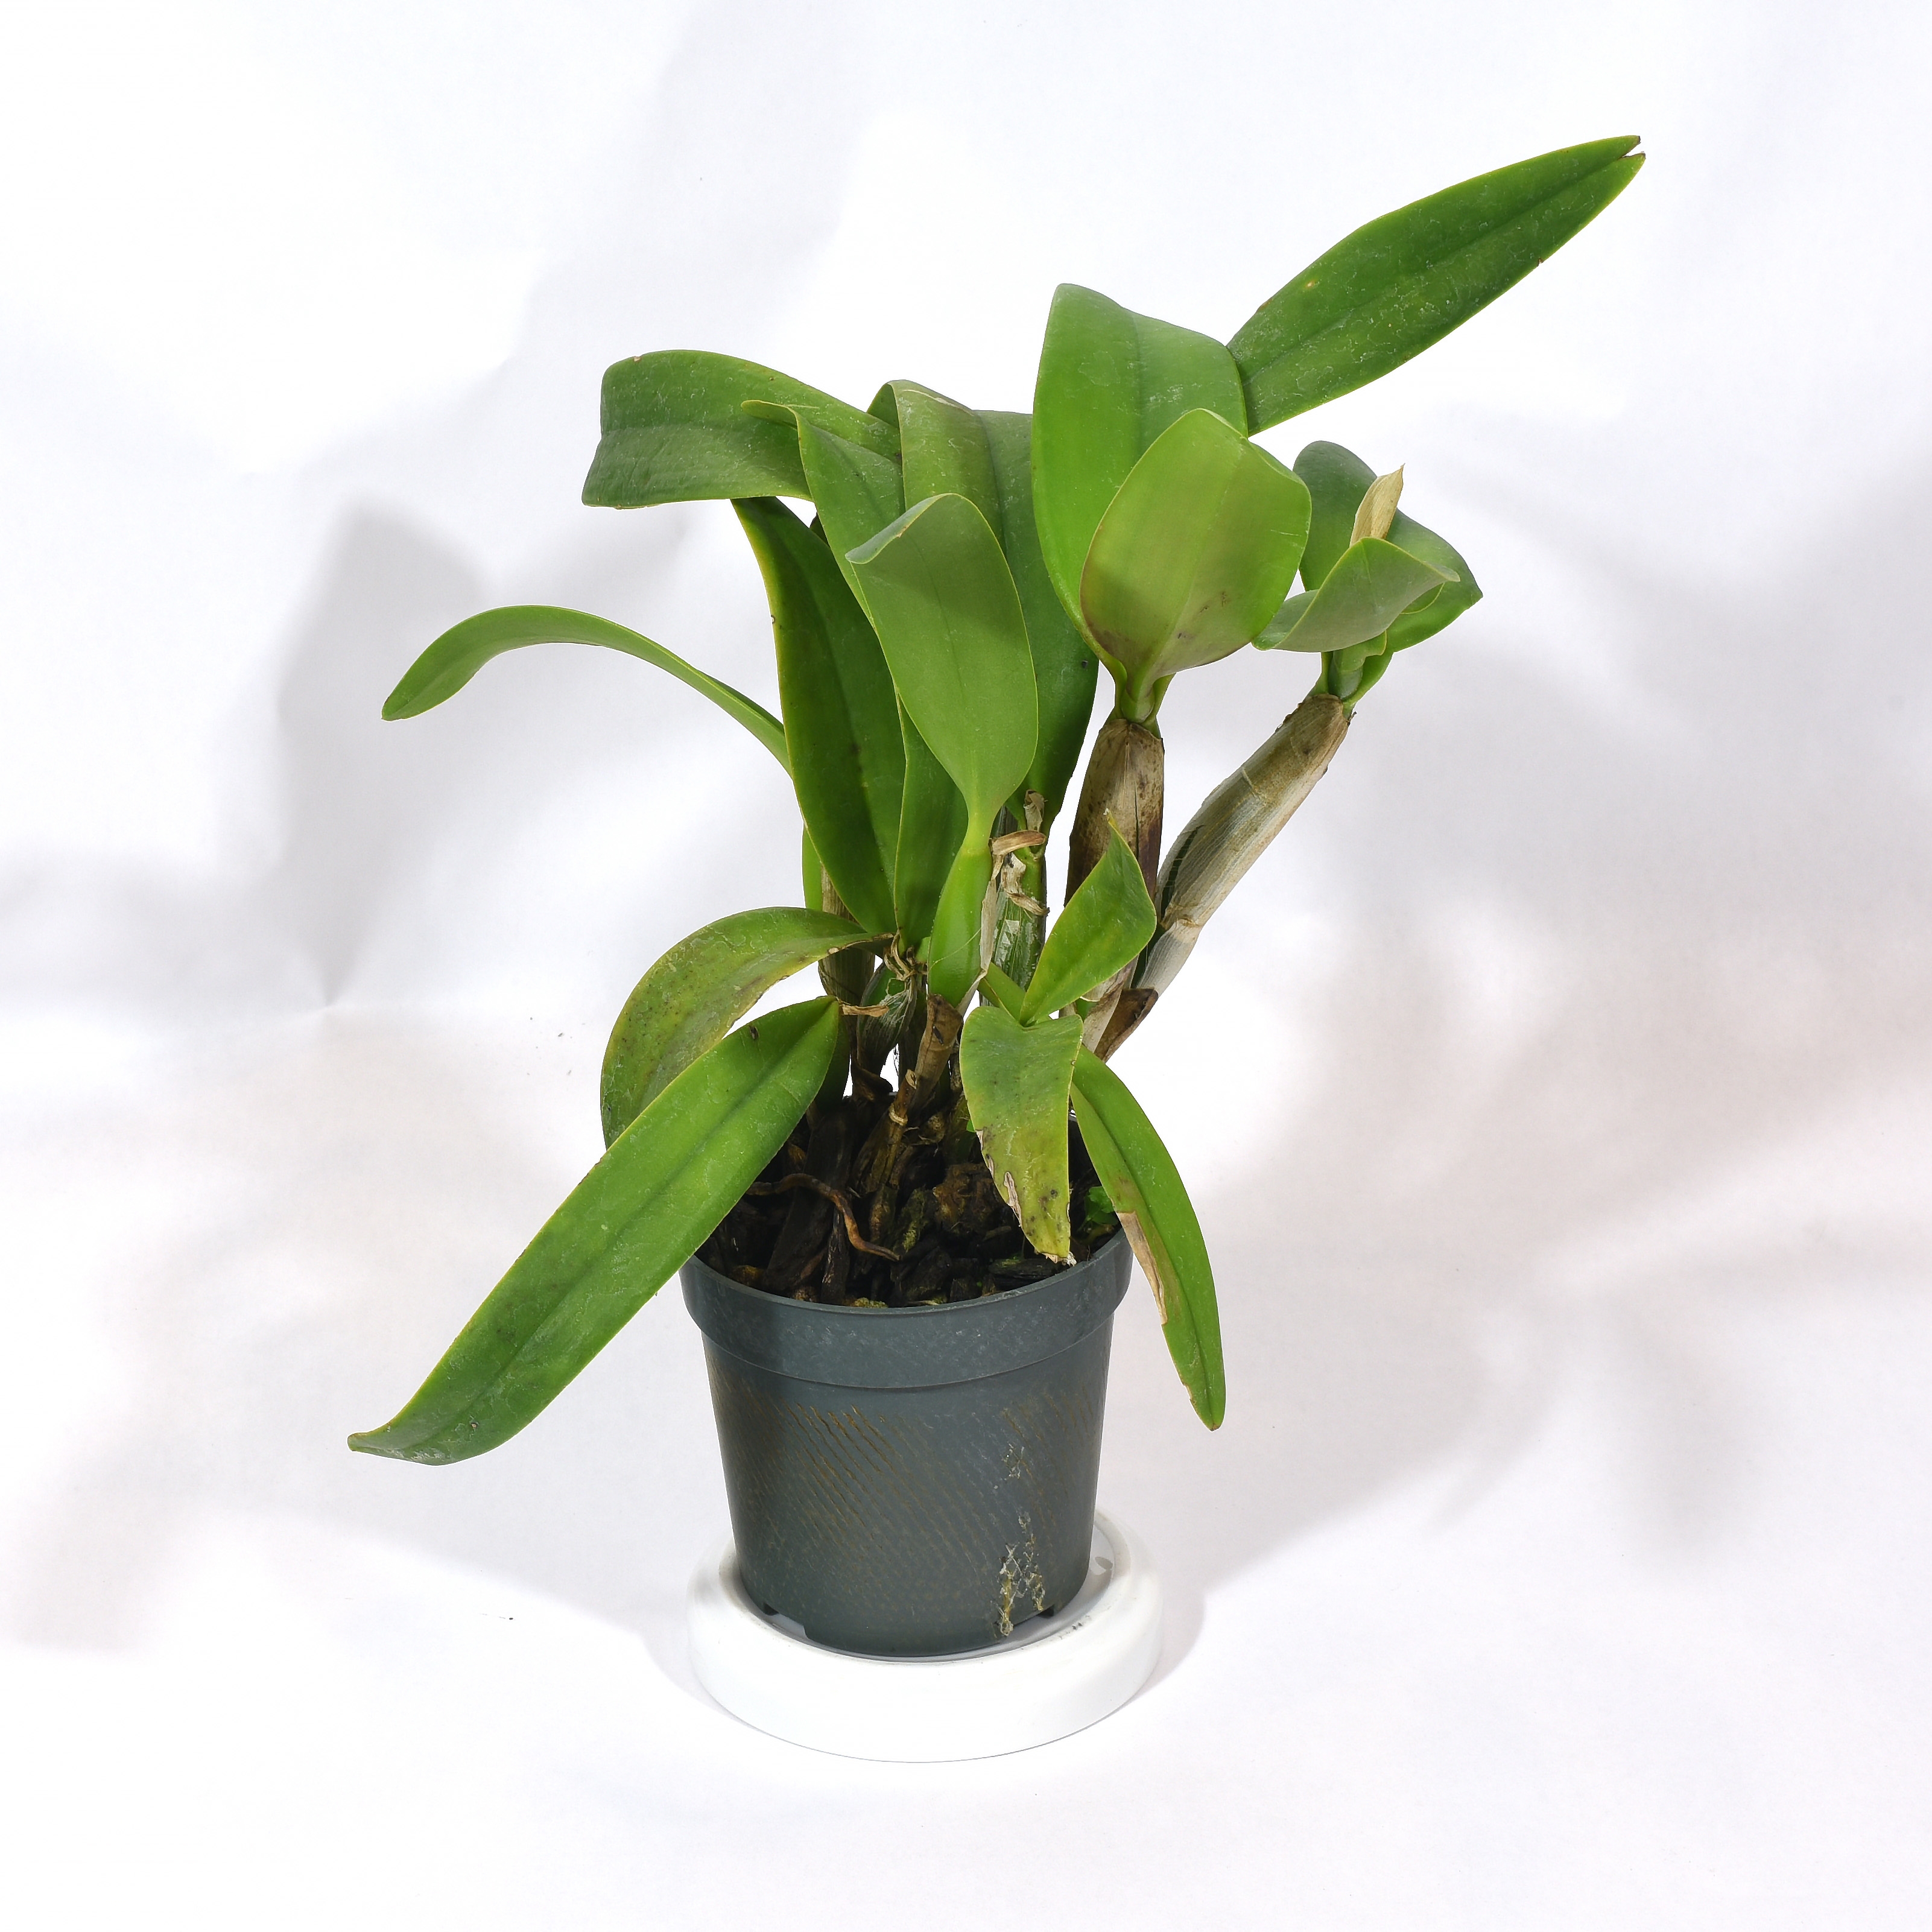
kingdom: Plantae
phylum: Tracheophyta
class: Liliopsida
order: Asparagales
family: Orchidaceae
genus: Cattleya
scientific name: Cattleya
